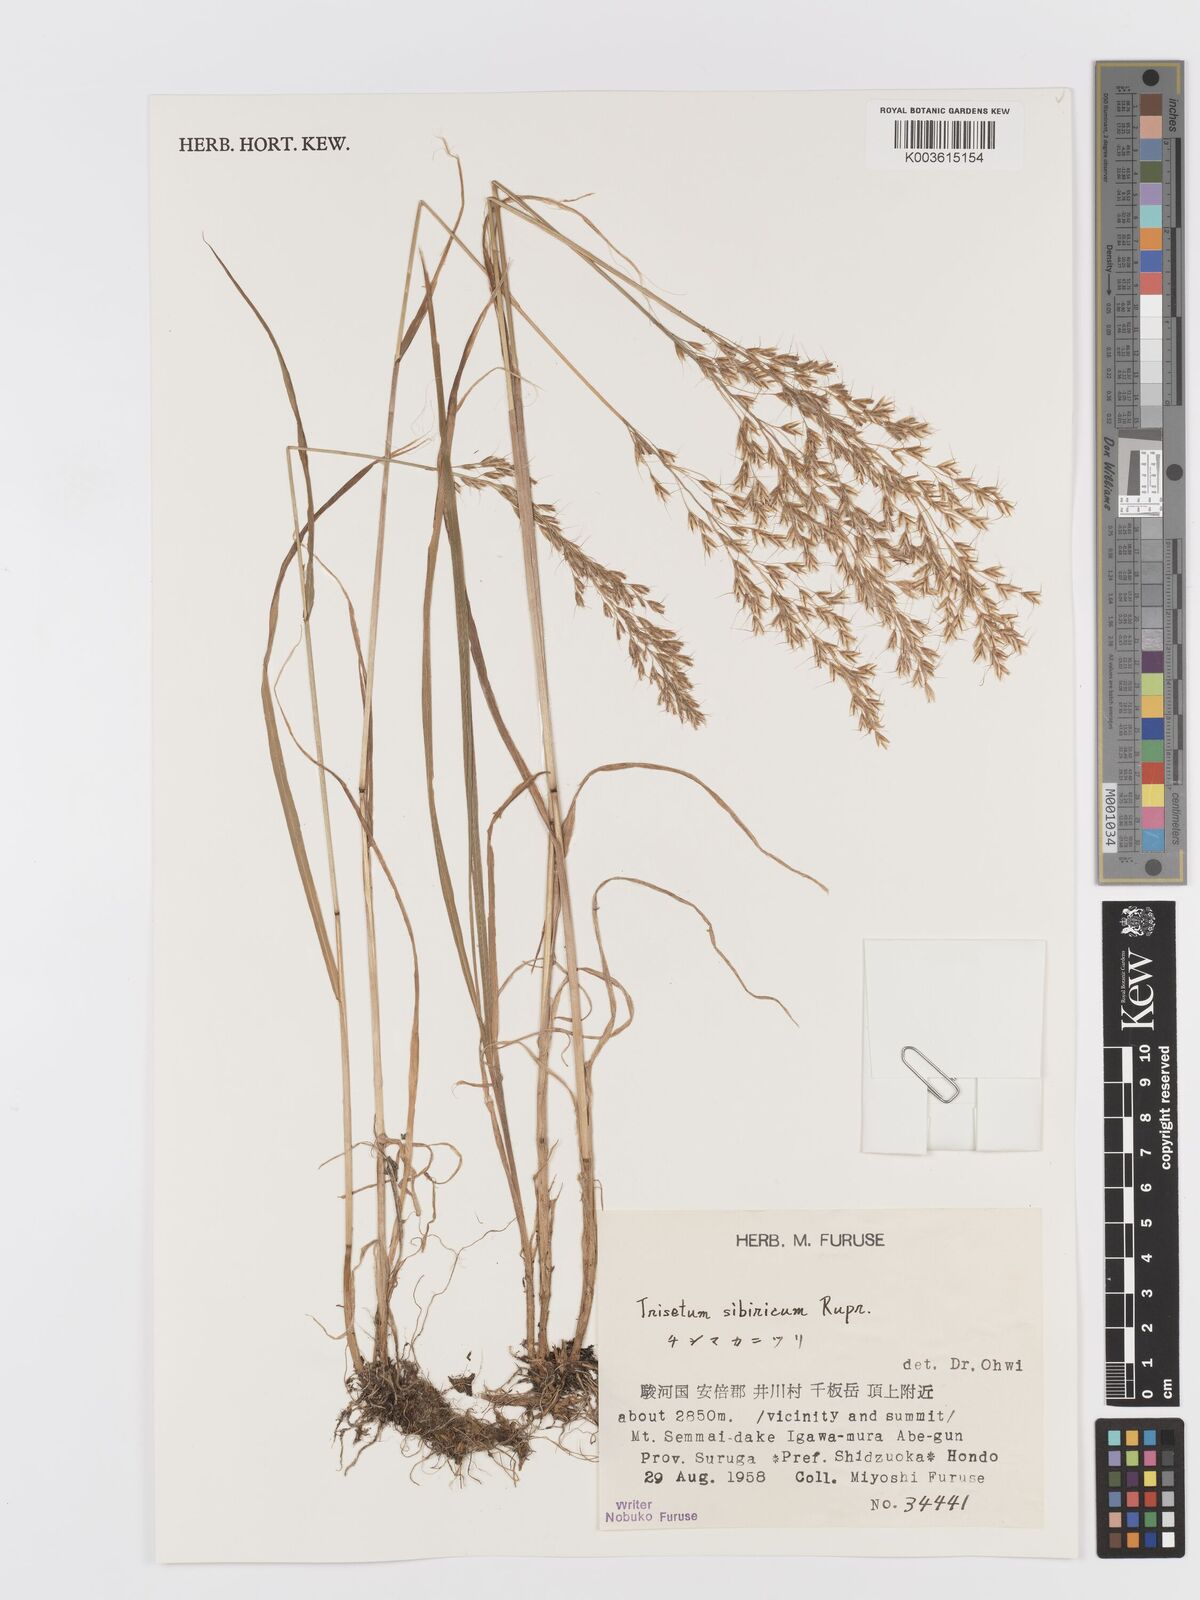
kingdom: Plantae
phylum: Tracheophyta
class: Liliopsida
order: Poales
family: Poaceae
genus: Sibirotrisetum
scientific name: Sibirotrisetum sibiricum
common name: Siberian false oat
